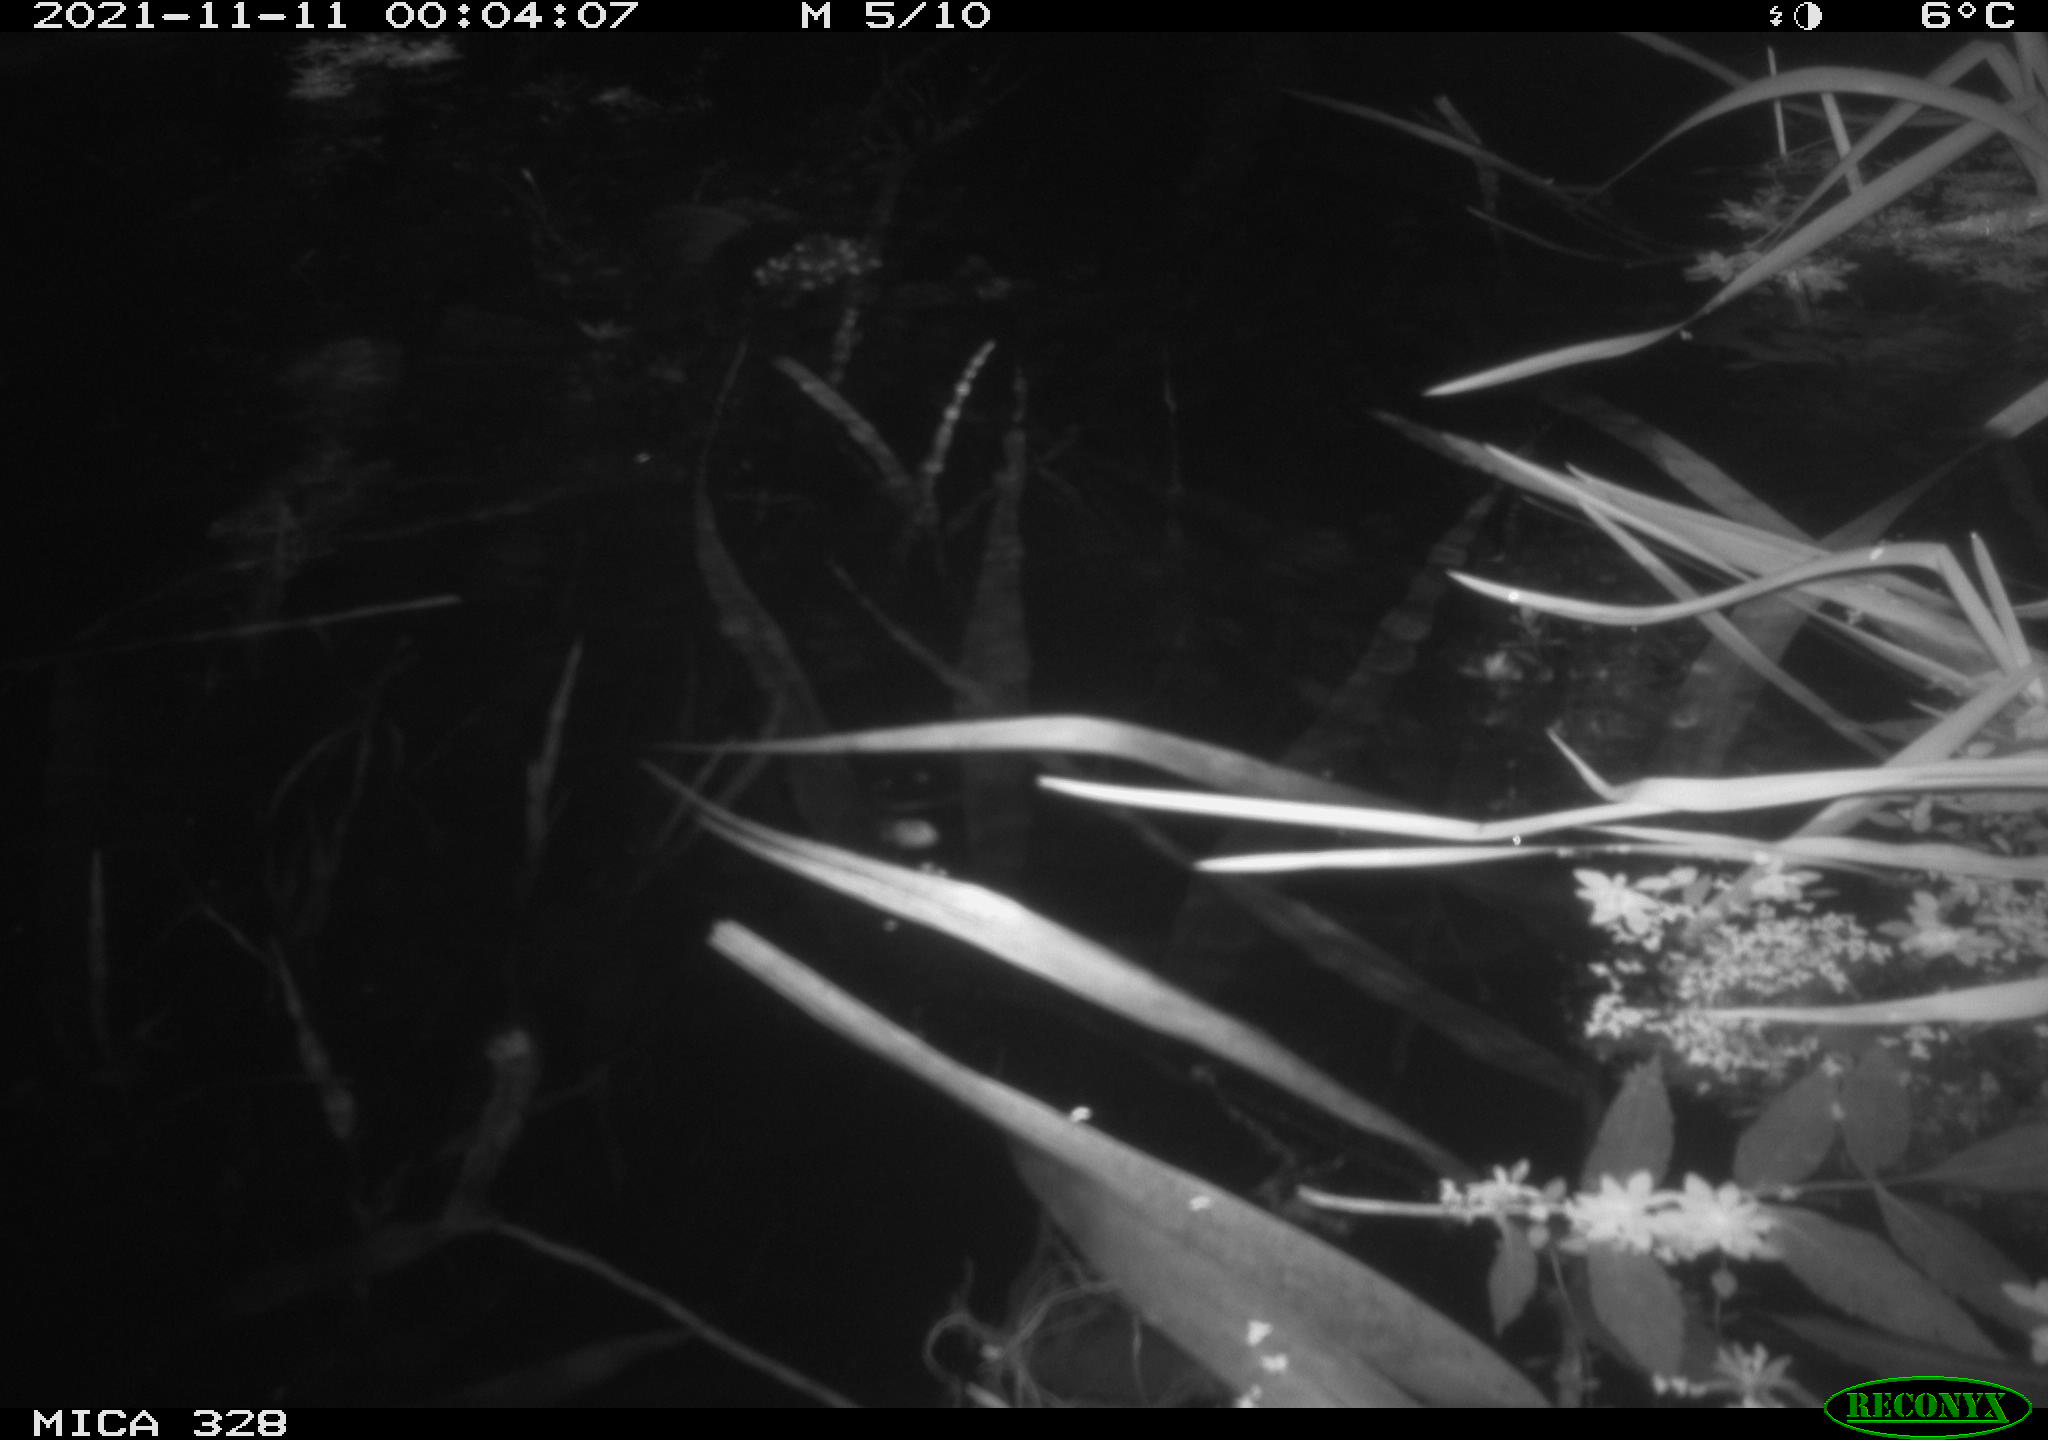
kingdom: Animalia
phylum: Chordata
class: Mammalia
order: Rodentia
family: Cricetidae
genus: Ondatra
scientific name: Ondatra zibethicus
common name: Muskrat
